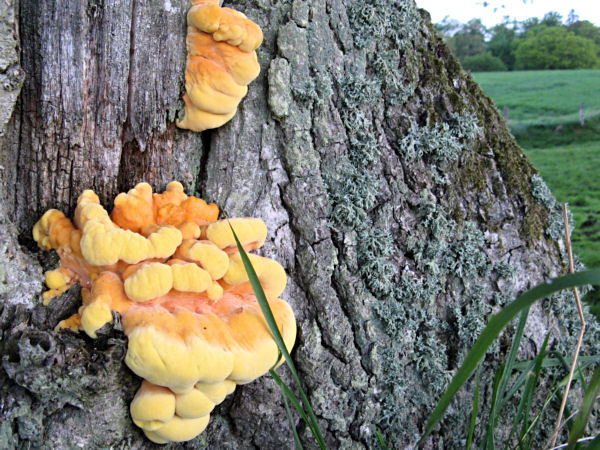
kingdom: Fungi
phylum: Basidiomycota
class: Agaricomycetes
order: Polyporales
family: Laetiporaceae
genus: Laetiporus
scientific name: Laetiporus sulphureus
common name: svovlporesvamp
